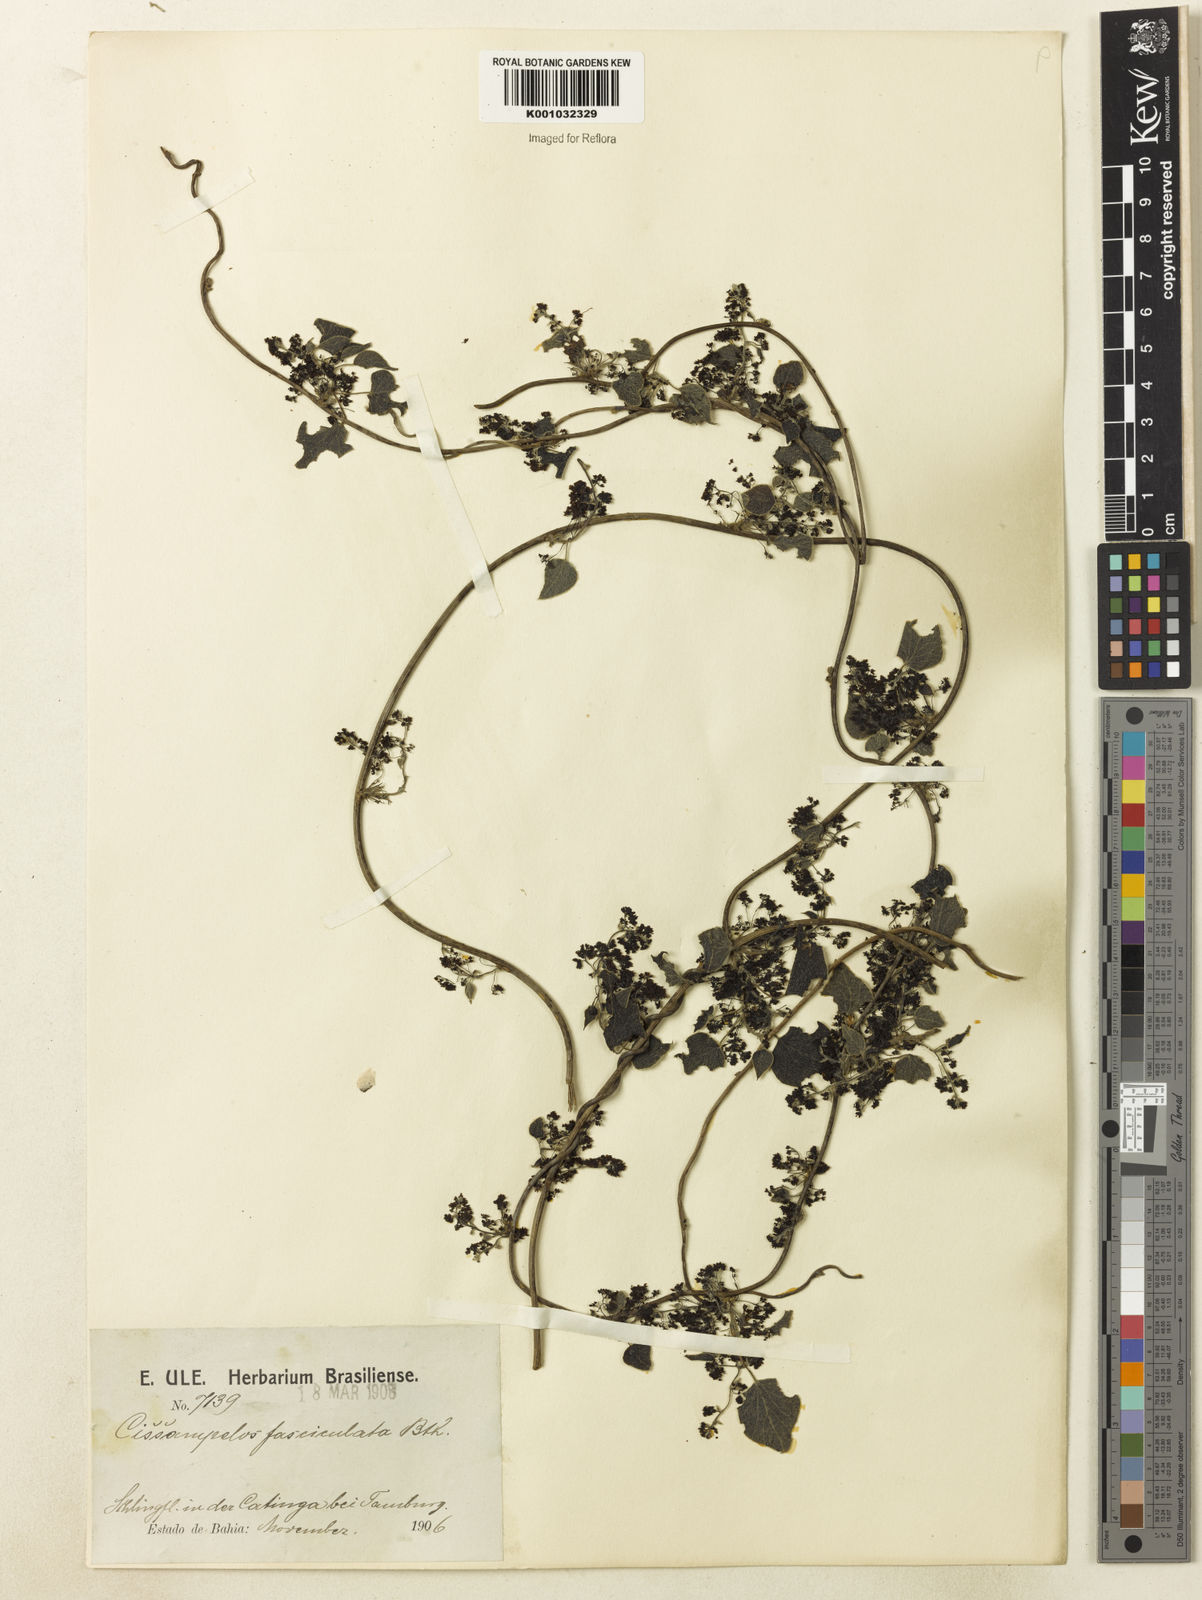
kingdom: Plantae
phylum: Tracheophyta
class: Magnoliopsida
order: Ranunculales
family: Menispermaceae
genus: Cissampelos
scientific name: Cissampelos fasciculata
